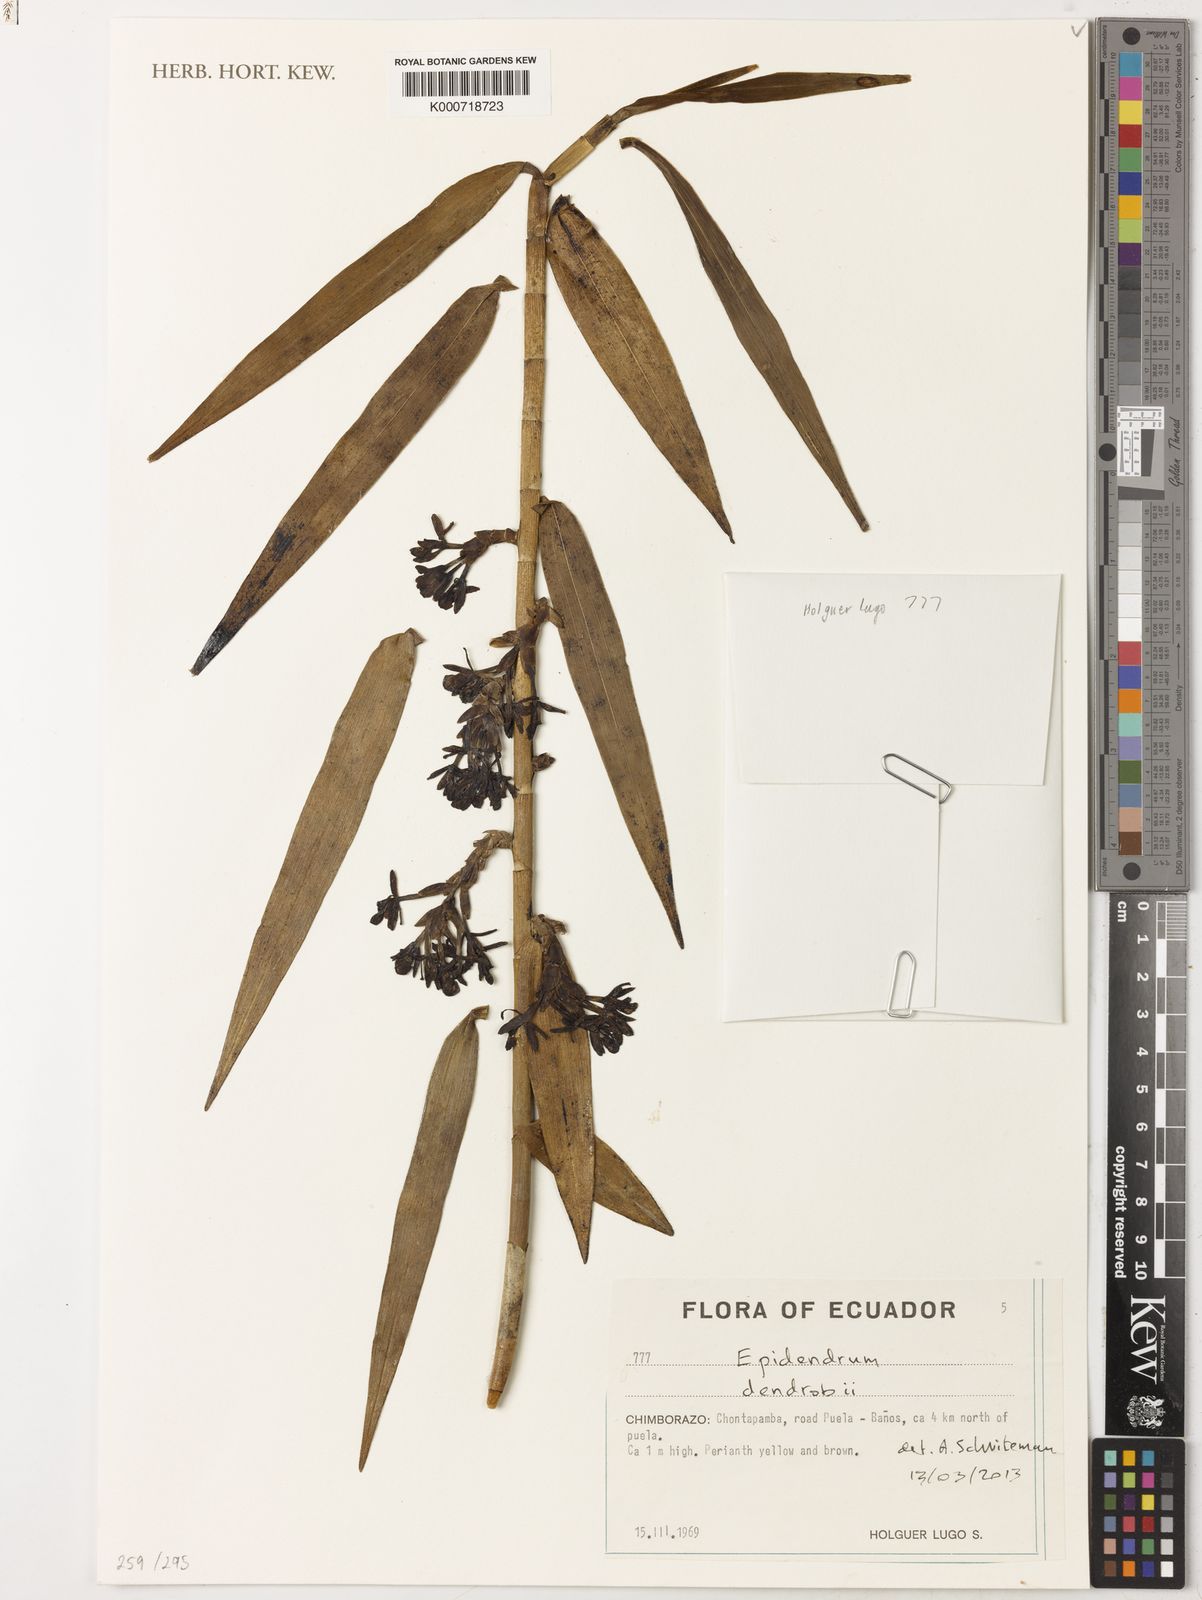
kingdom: Plantae
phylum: Tracheophyta
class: Liliopsida
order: Asparagales
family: Orchidaceae
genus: Epidendrum
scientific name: Epidendrum dendrobii
